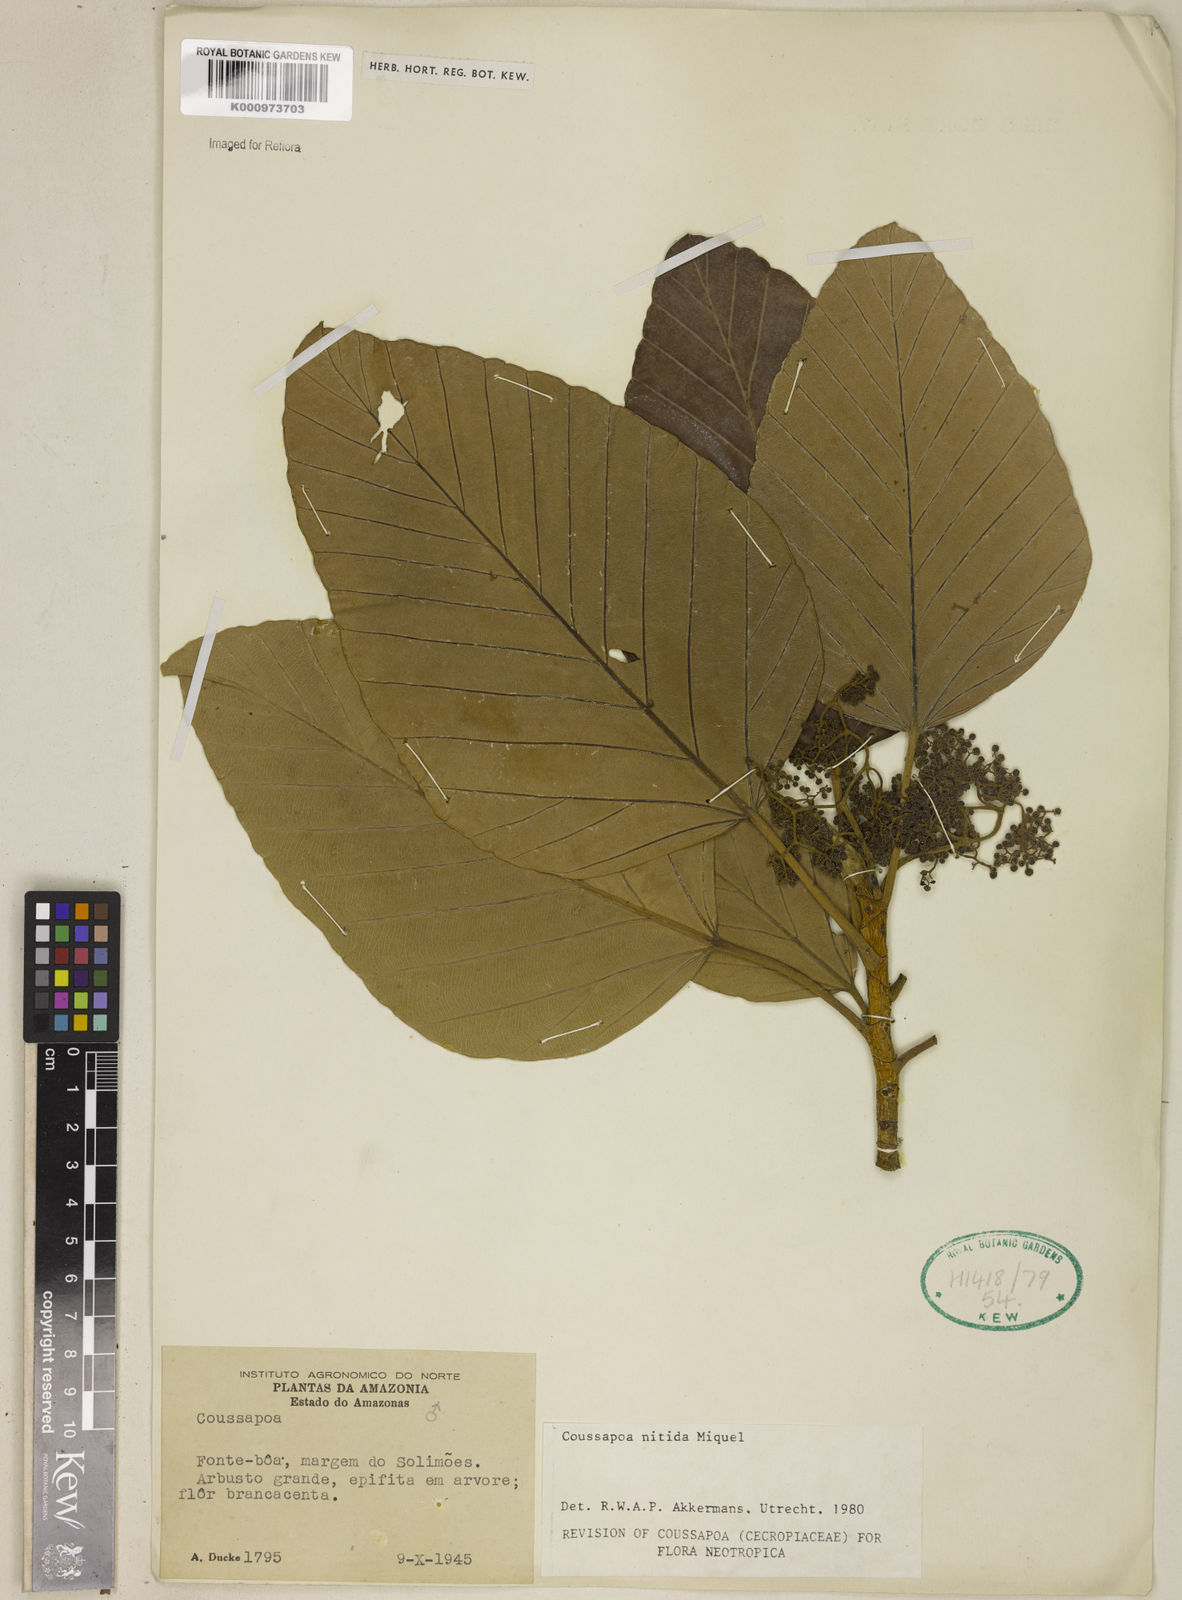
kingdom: Plantae
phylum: Tracheophyta
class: Magnoliopsida
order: Rosales
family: Urticaceae
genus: Coussapoa
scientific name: Coussapoa nitida
